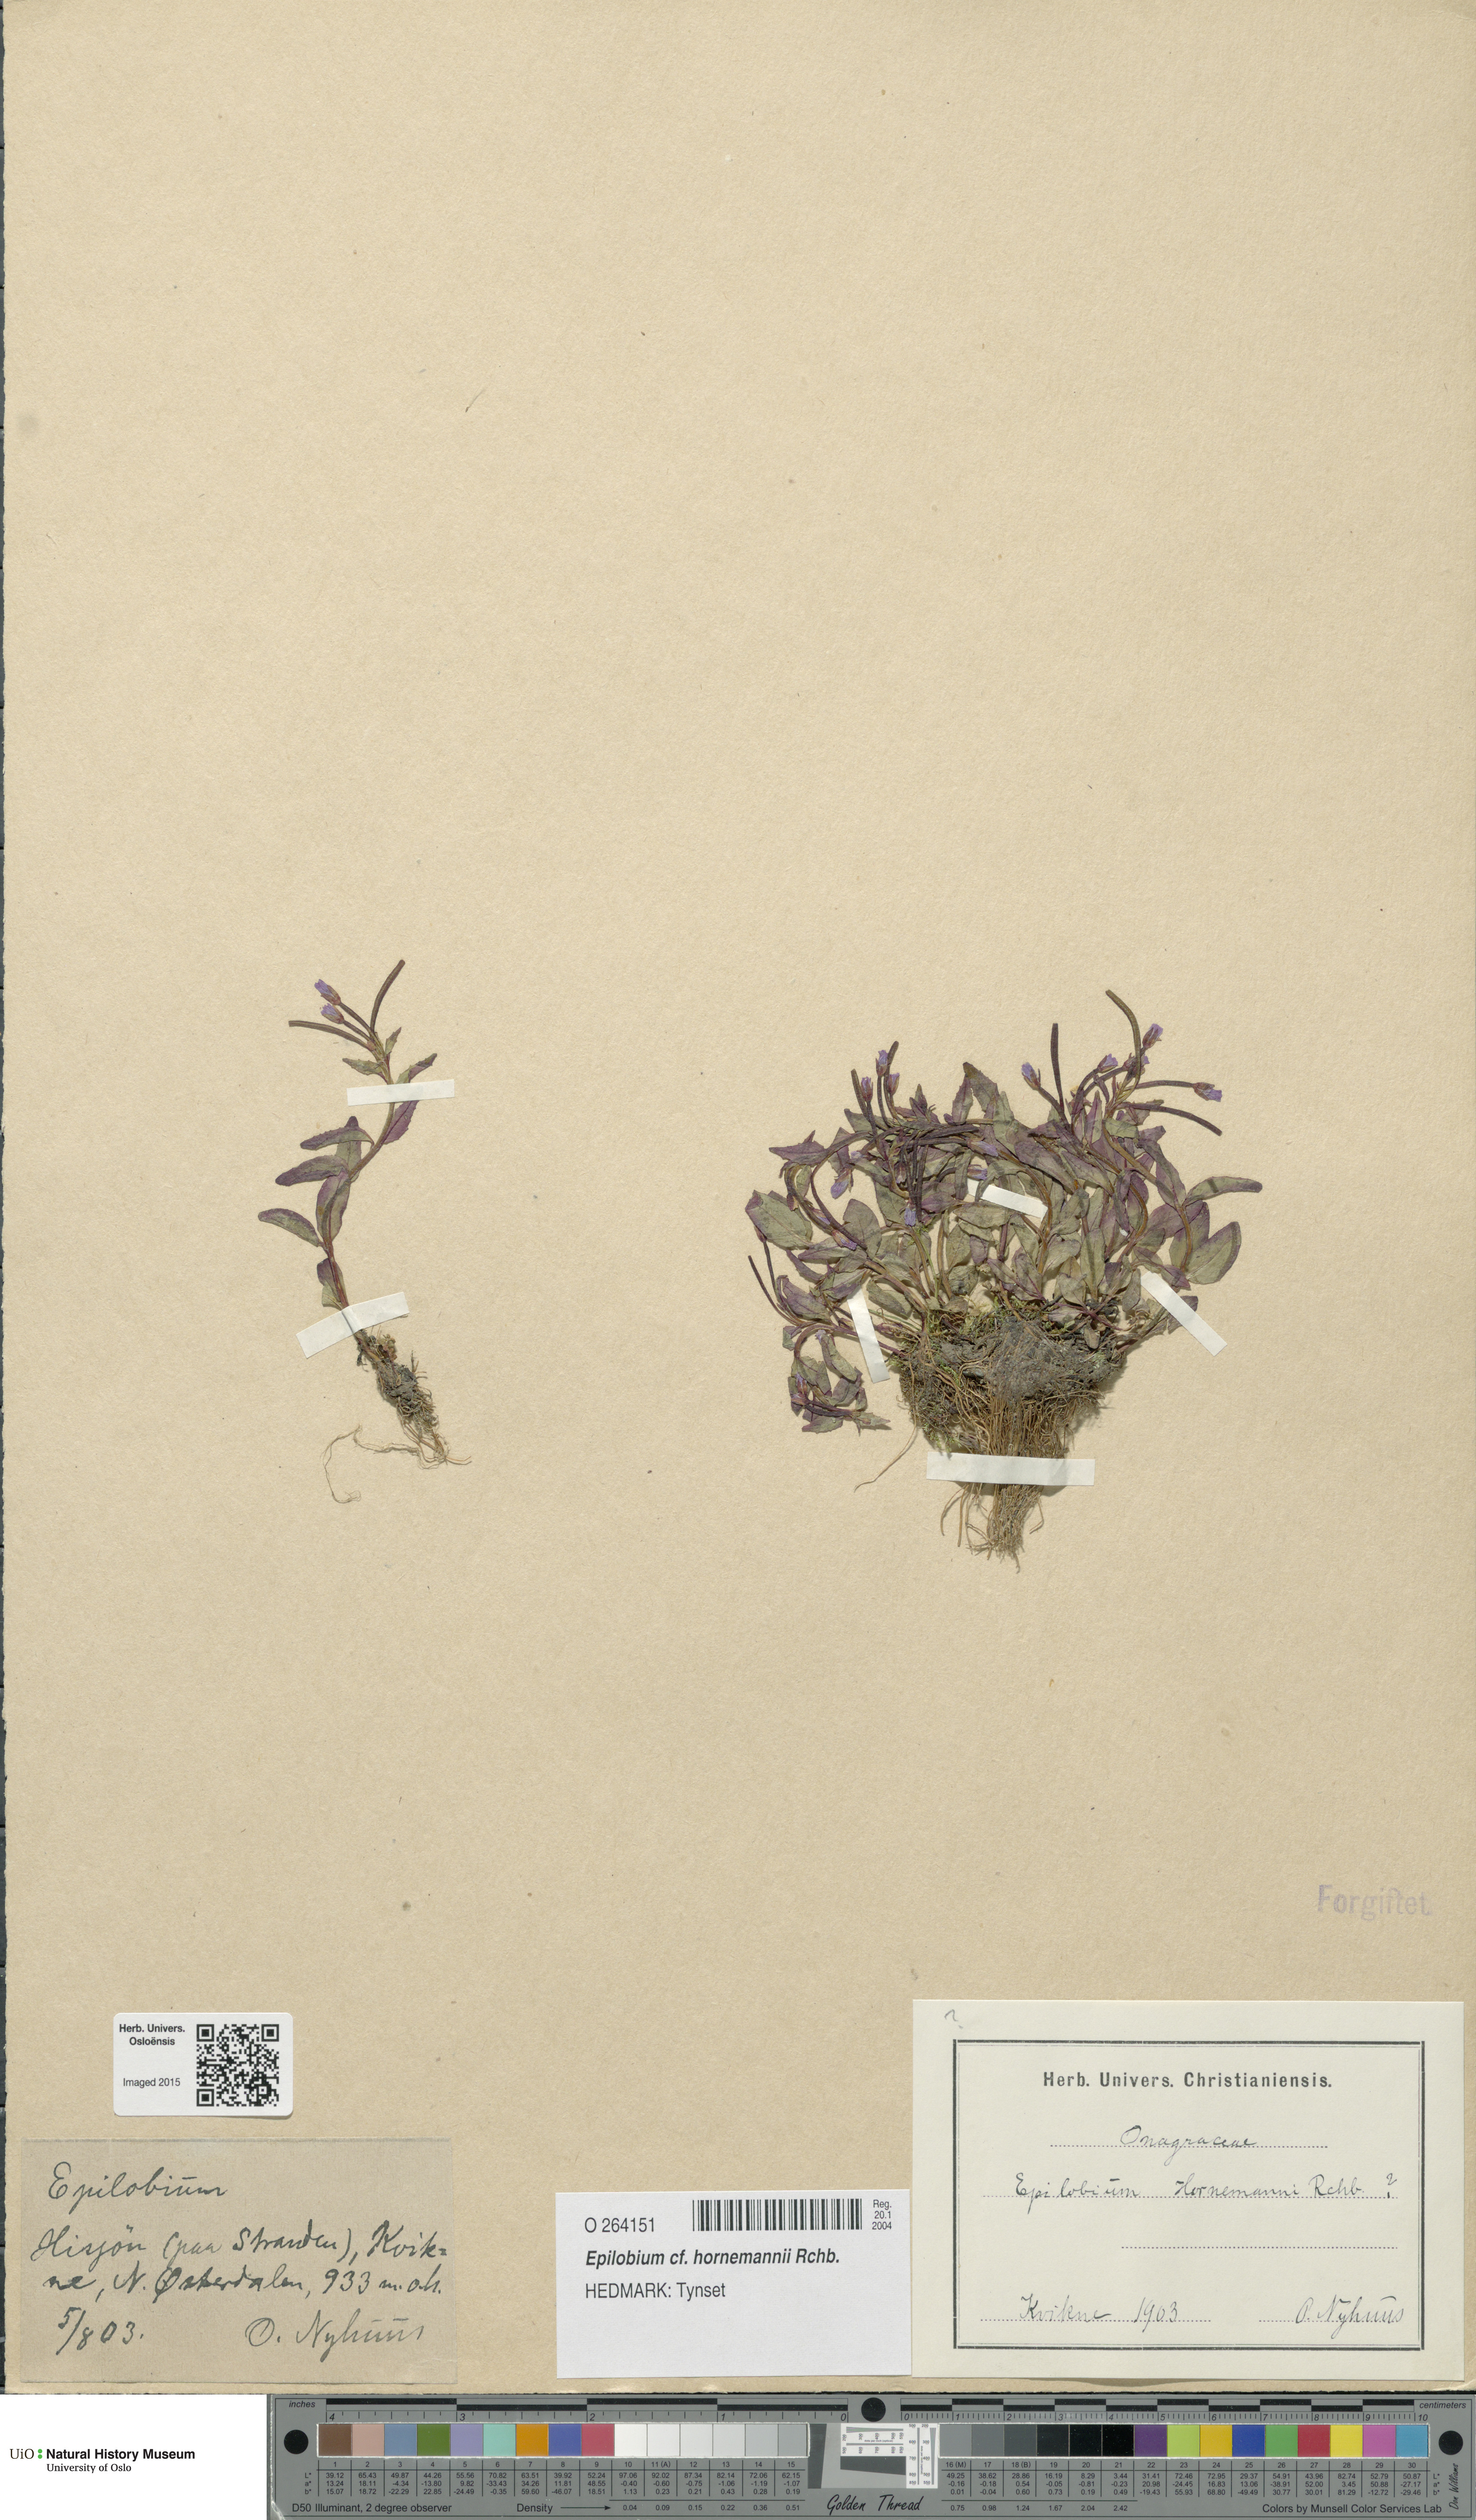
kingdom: Plantae
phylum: Tracheophyta
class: Magnoliopsida
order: Myrtales
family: Onagraceae
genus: Epilobium
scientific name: Epilobium hornemannii
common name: Hornemann's willowherb
